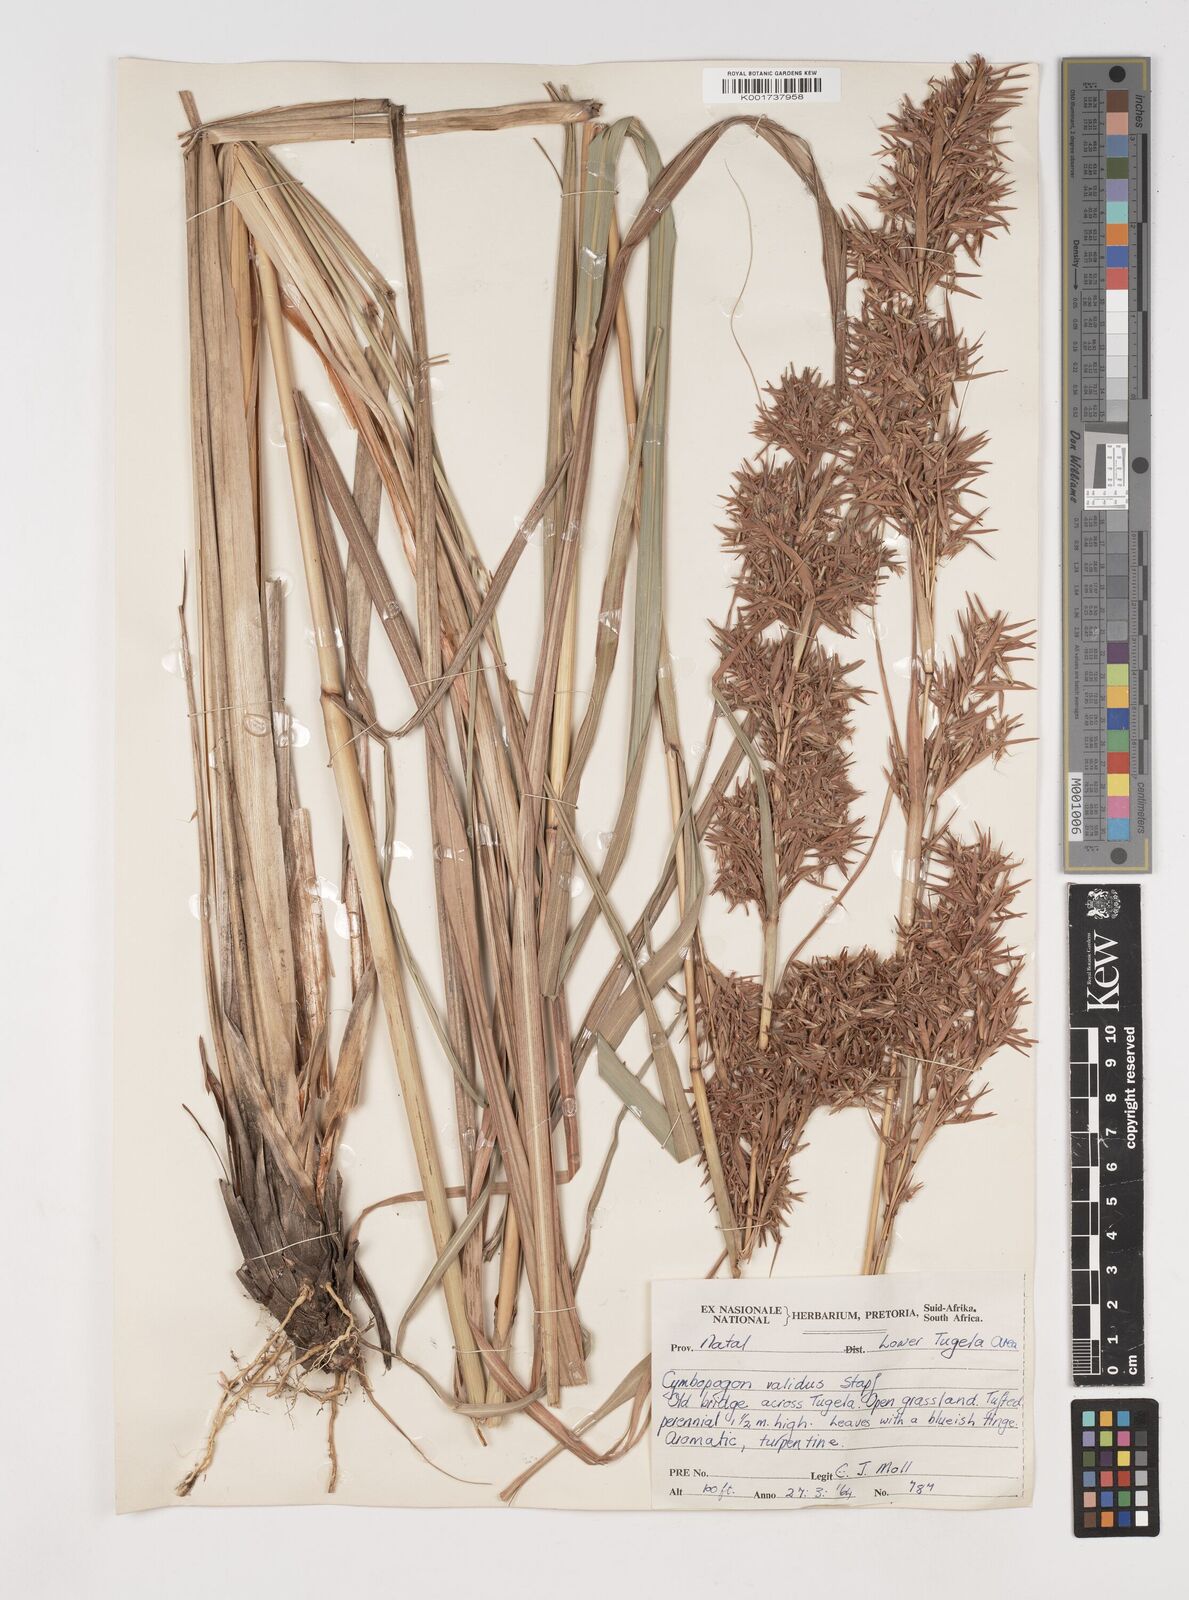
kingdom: Plantae
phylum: Tracheophyta
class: Liliopsida
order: Poales
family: Poaceae
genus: Cymbopogon
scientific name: Cymbopogon nardus
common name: Giant turpentine grass
